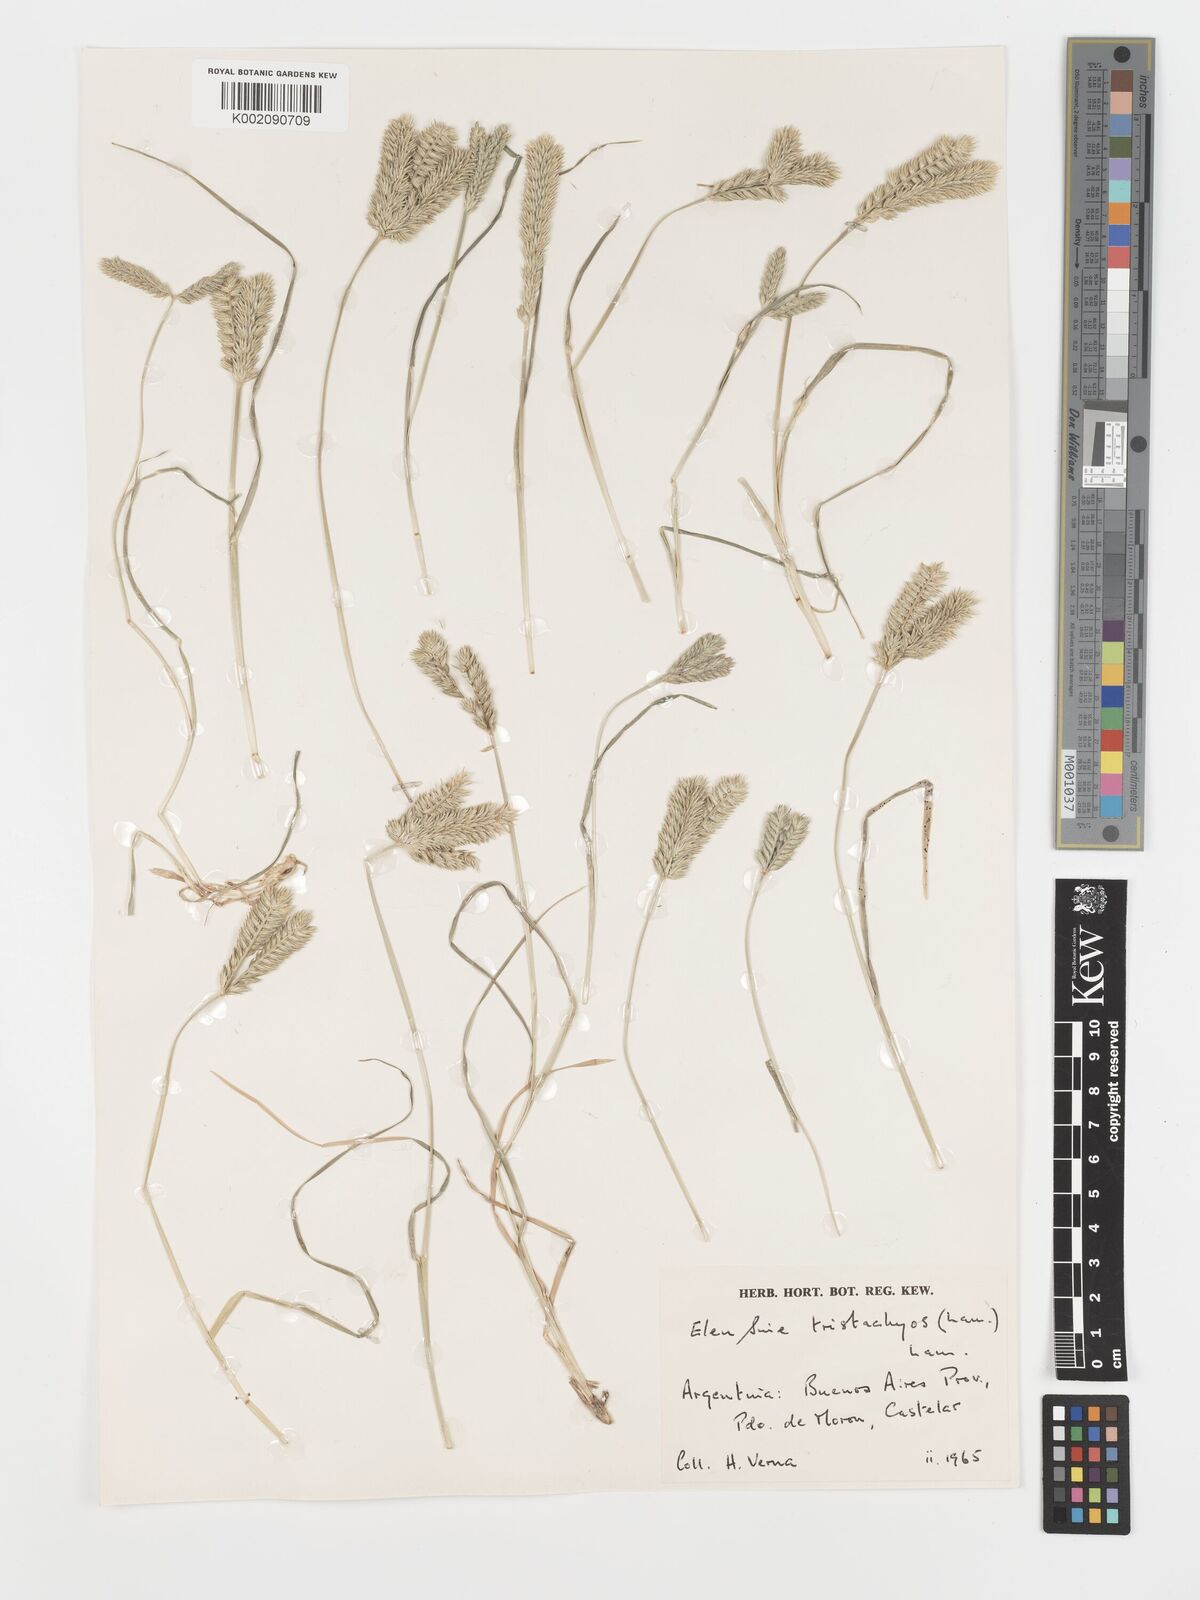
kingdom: Plantae
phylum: Tracheophyta
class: Liliopsida
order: Poales
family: Poaceae
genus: Eleusine
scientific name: Eleusine tristachya
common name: American yard-grass
